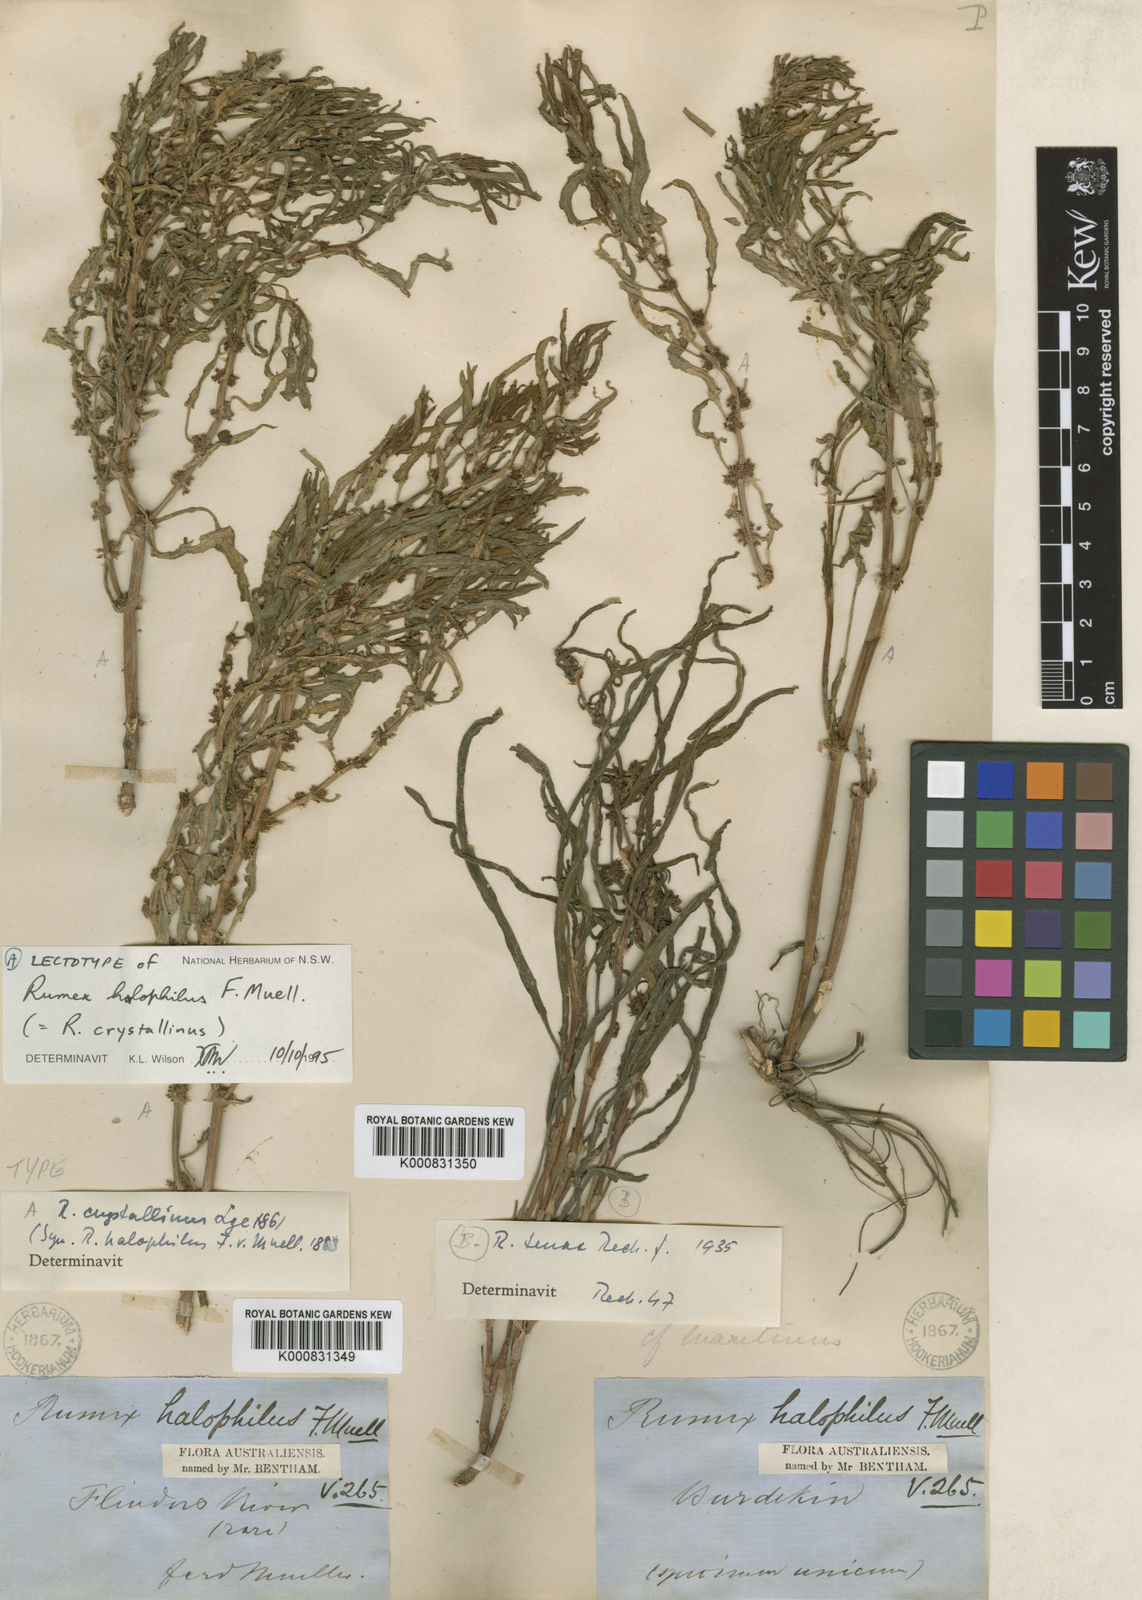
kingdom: Plantae
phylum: Tracheophyta
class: Magnoliopsida
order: Caryophyllales
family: Polygonaceae
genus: Rumex
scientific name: Rumex crystallinus
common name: Glistening dock
